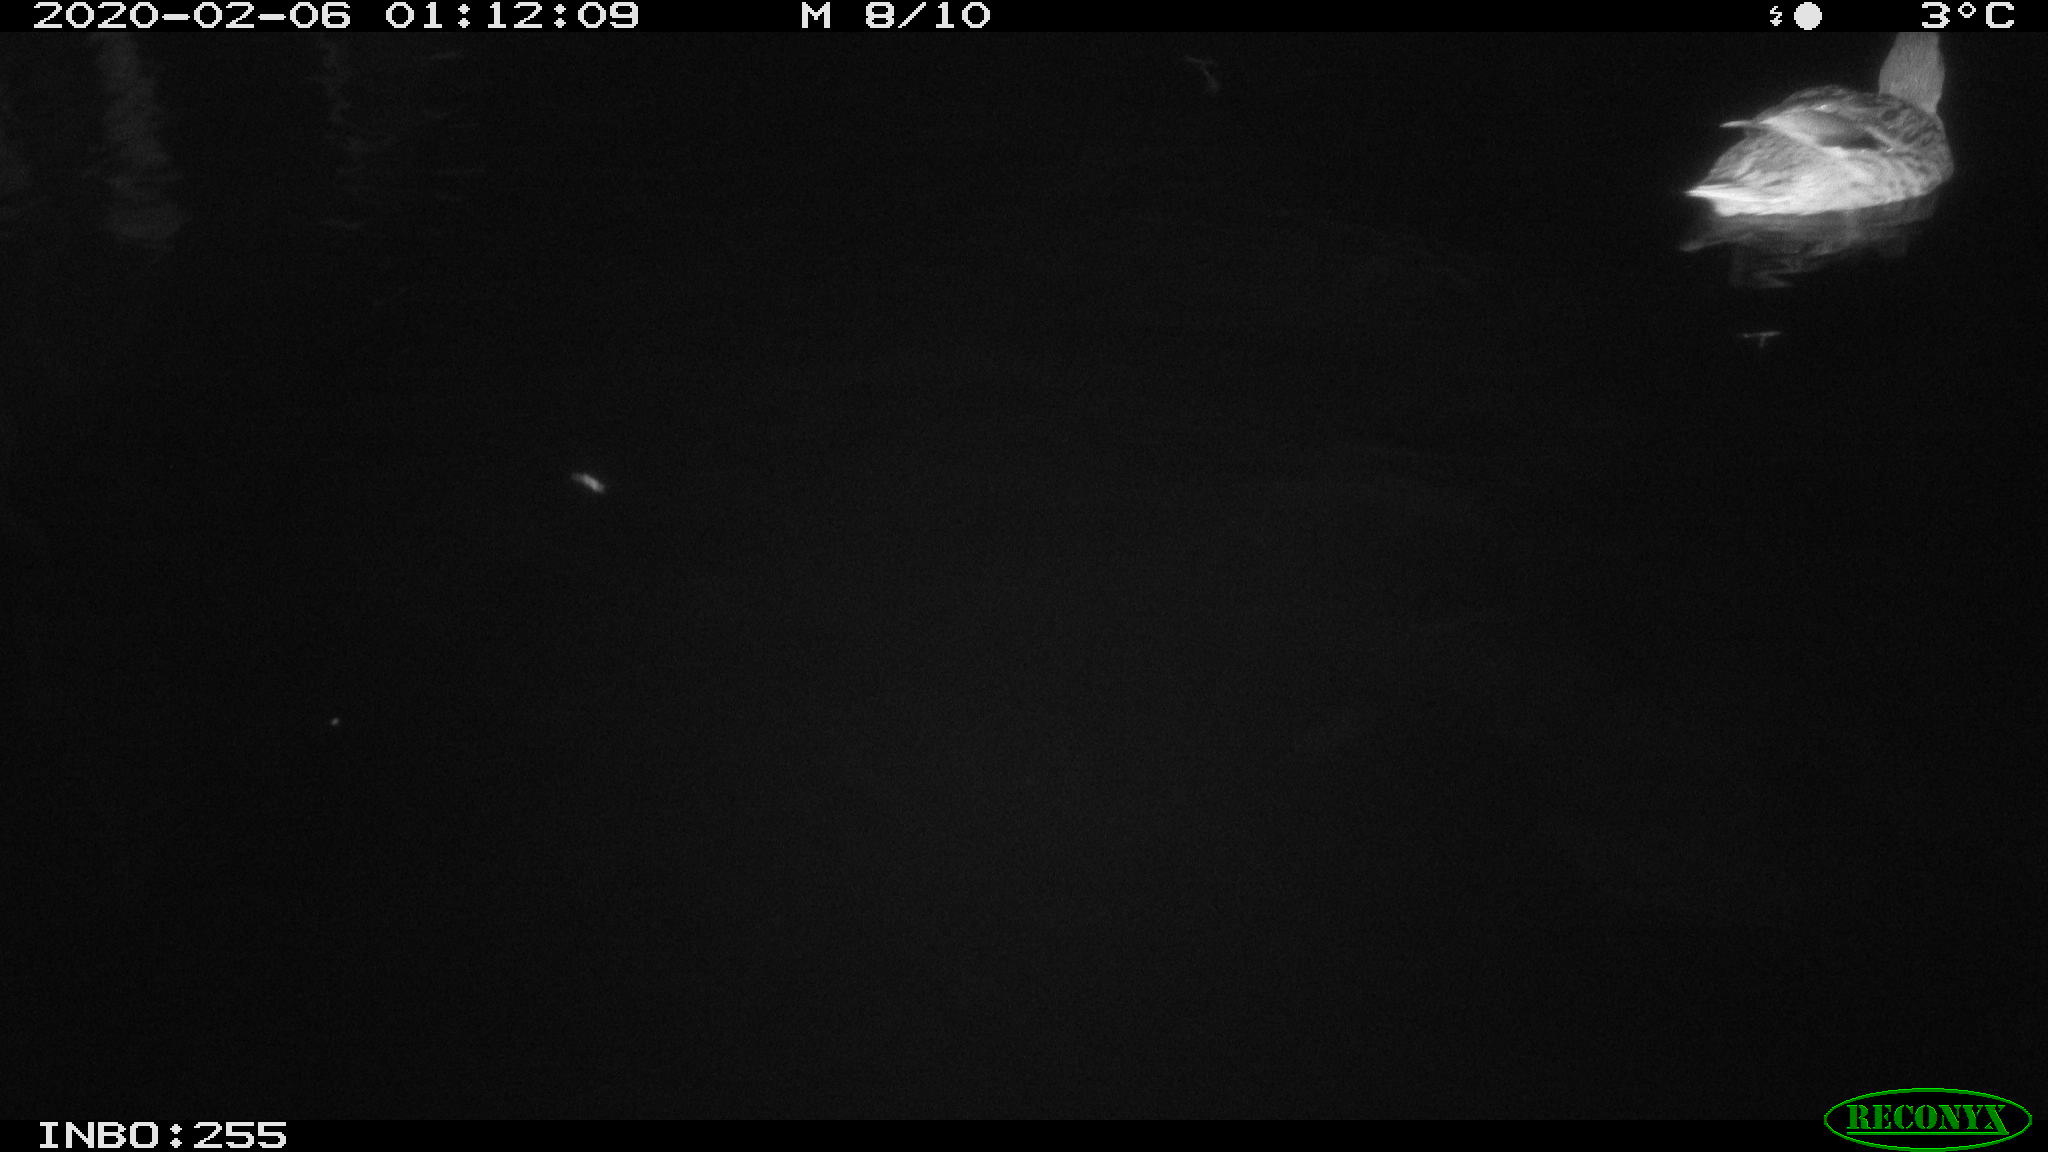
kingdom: Animalia
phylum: Chordata
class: Aves
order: Anseriformes
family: Anatidae
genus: Anas
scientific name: Anas platyrhynchos
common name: Mallard
